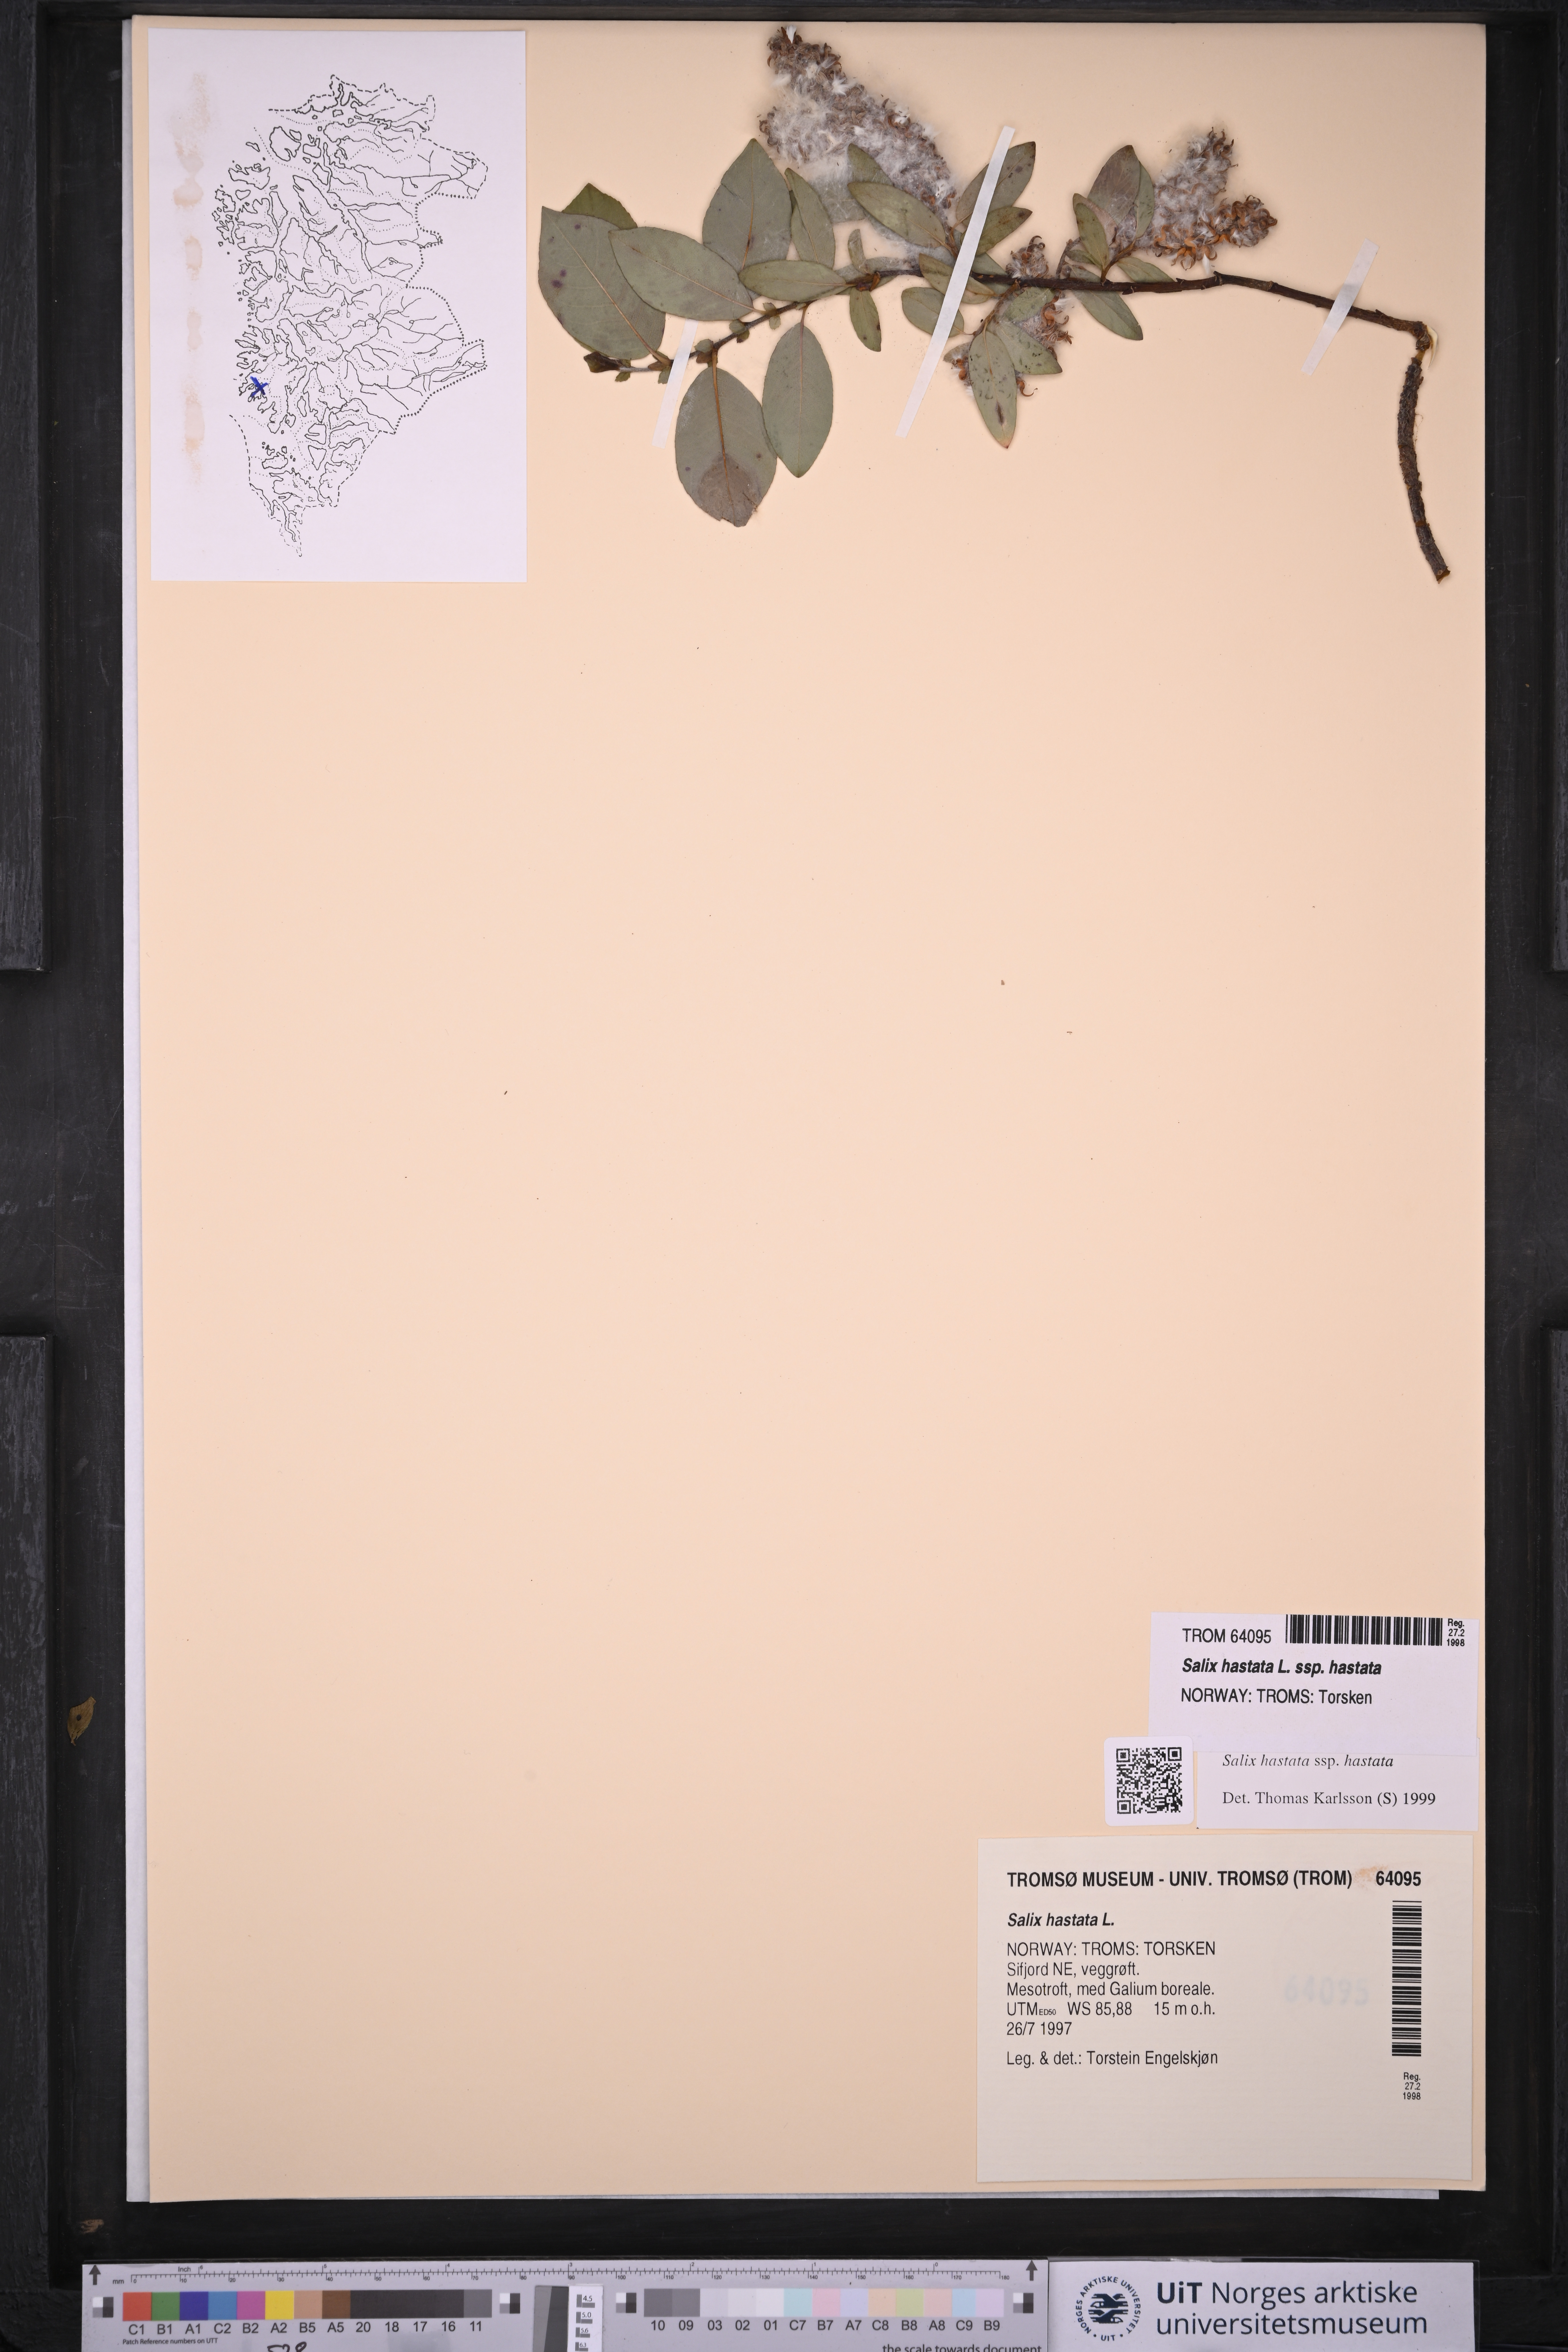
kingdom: Plantae
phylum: Tracheophyta
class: Magnoliopsida
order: Malpighiales
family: Salicaceae
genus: Salix
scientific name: Salix hastata
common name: Halberd willow
